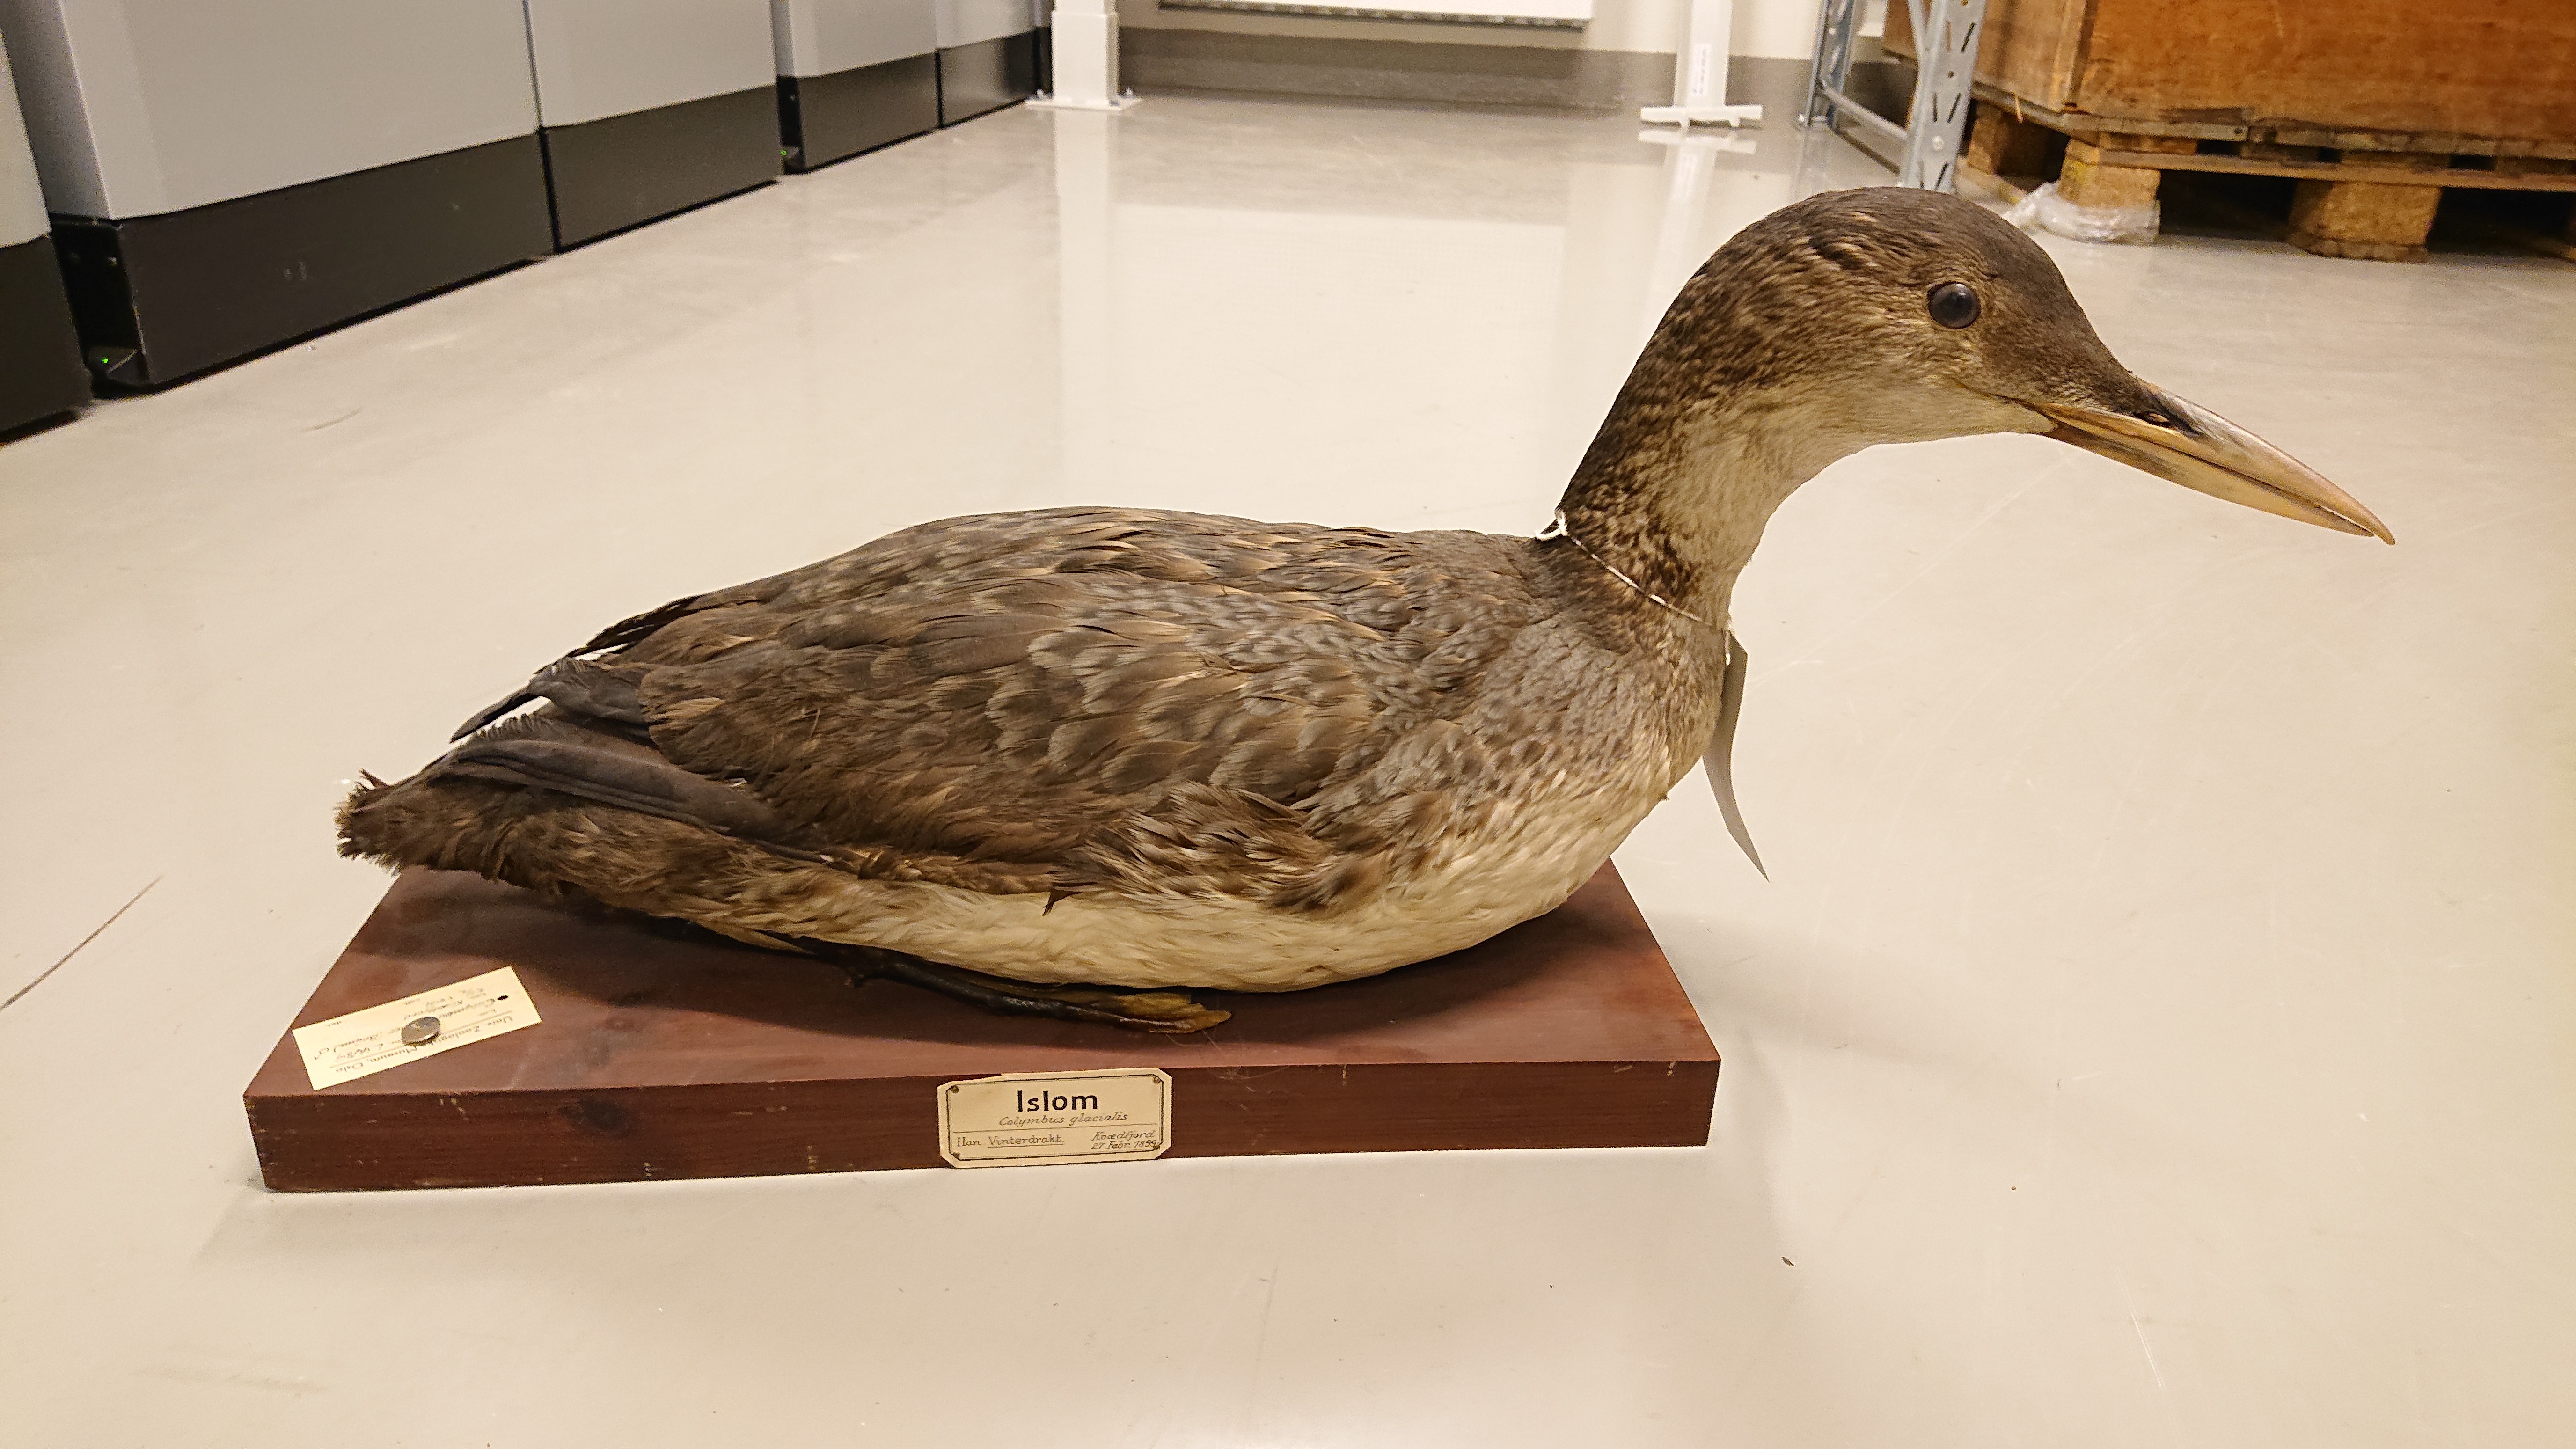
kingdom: Animalia
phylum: Chordata
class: Aves
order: Gaviiformes
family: Gaviidae
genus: Gavia
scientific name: Gavia immer
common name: Common loon
